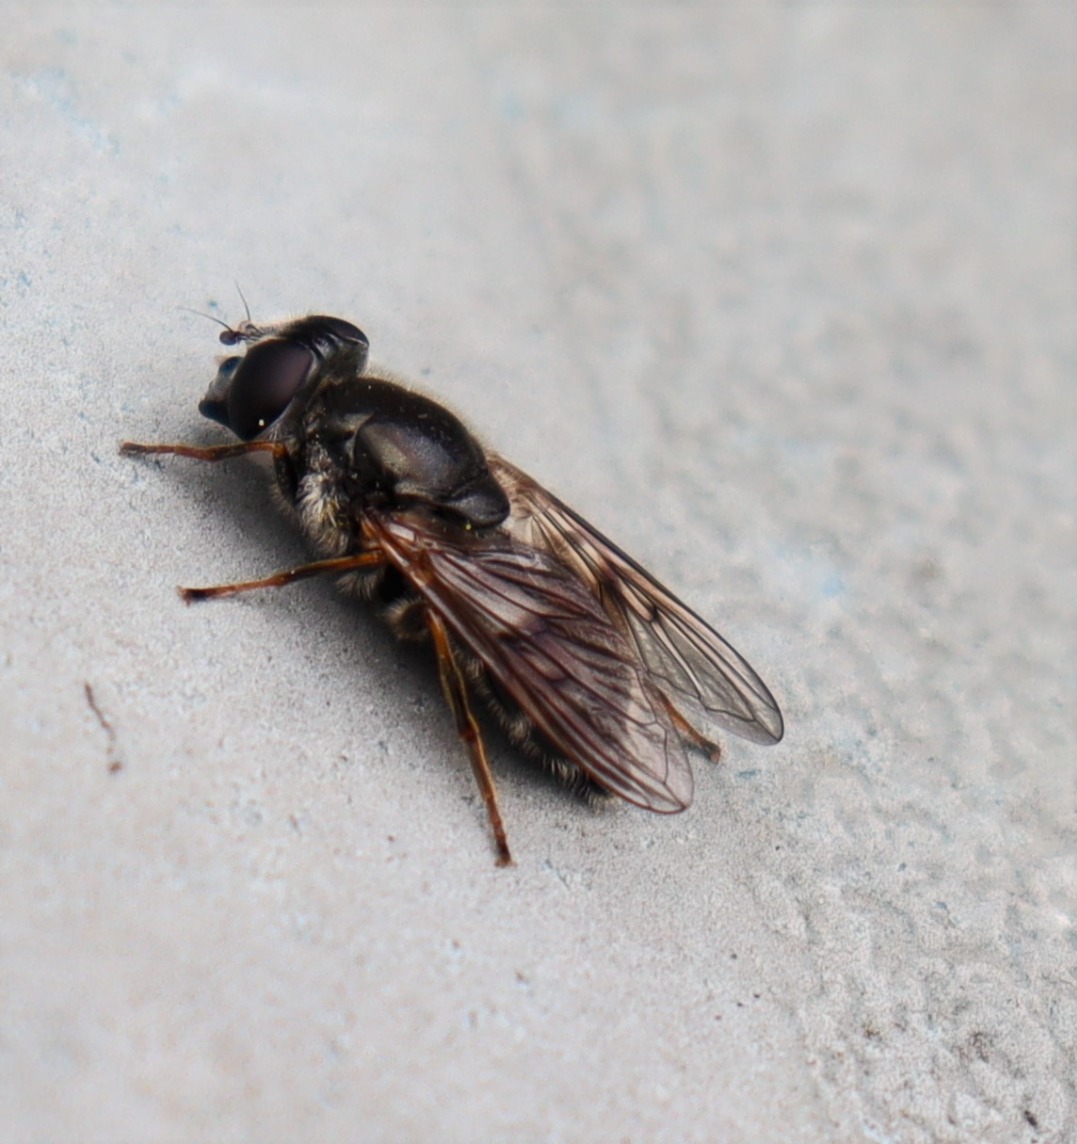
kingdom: Animalia
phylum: Arthropoda
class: Insecta
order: Diptera
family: Syrphidae
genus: Cheilosia
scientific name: Cheilosia caerulescens
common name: Husløg-urtesvirreflue
